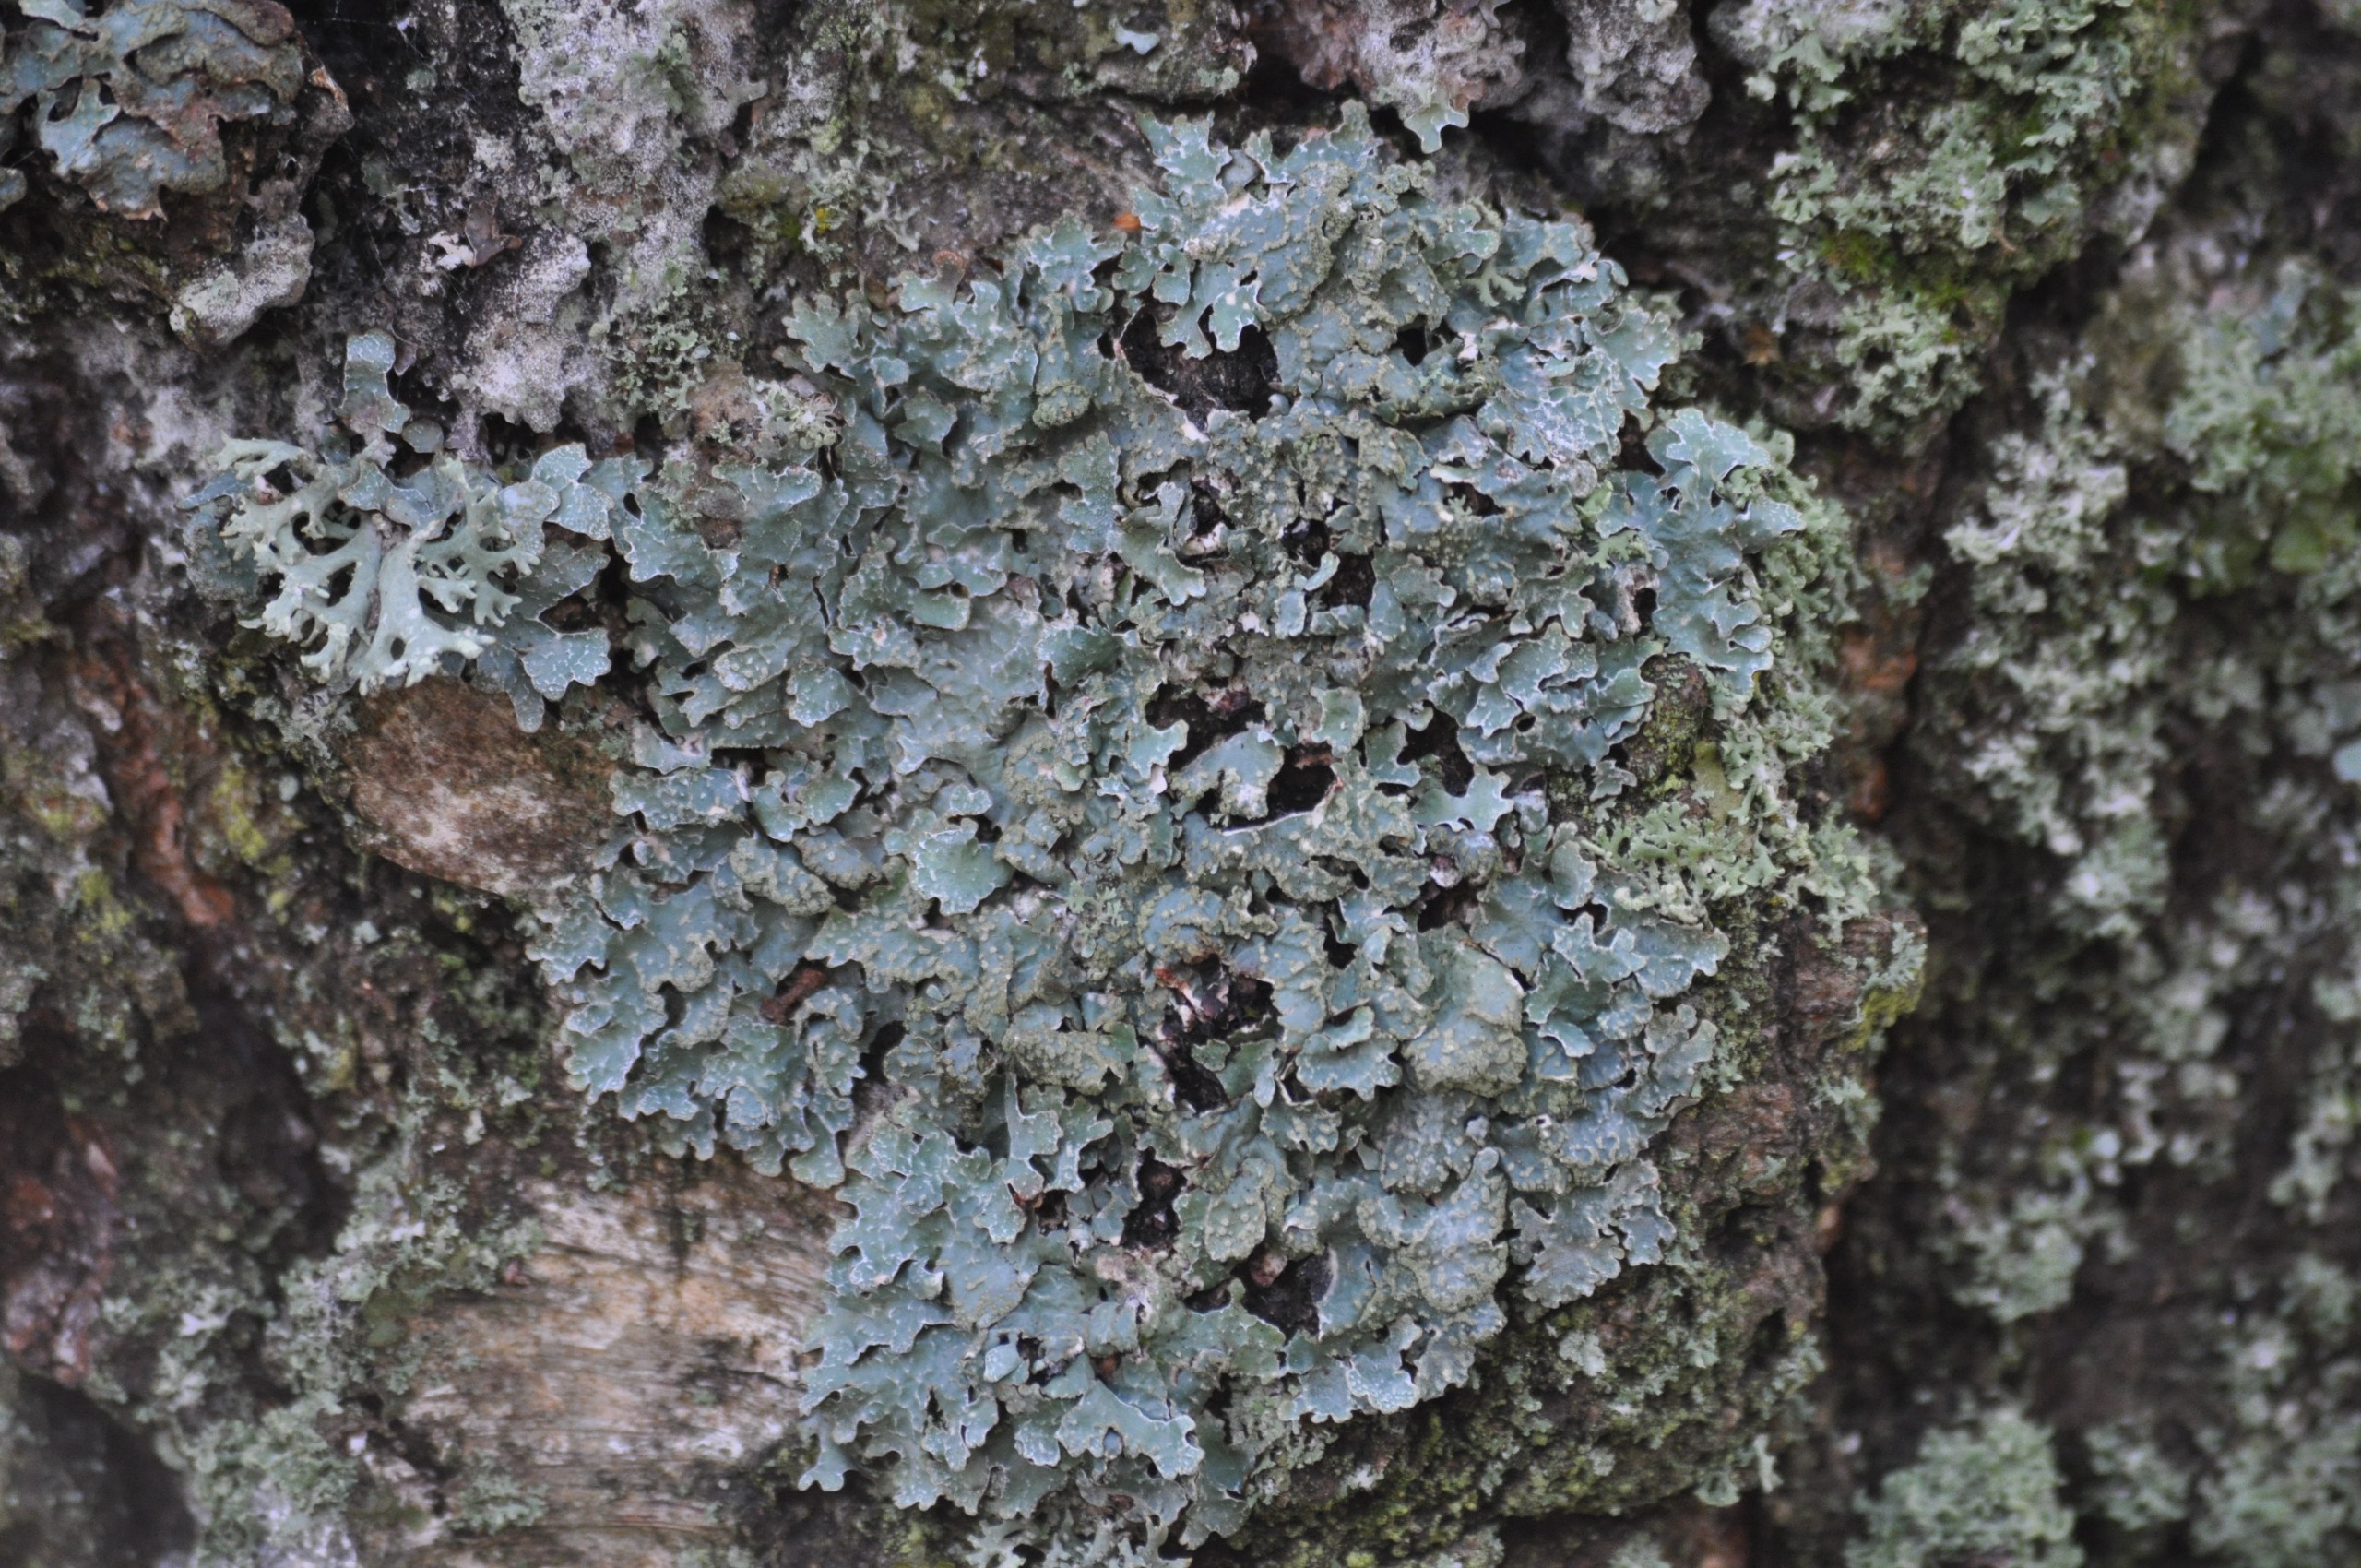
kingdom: Fungi
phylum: Ascomycota
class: Lecanoromycetes
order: Lecanorales
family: Parmeliaceae
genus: Parmelia
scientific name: Parmelia sulcata
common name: Rynket skållav
